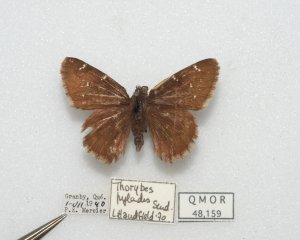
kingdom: Animalia
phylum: Arthropoda
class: Insecta
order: Lepidoptera
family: Hesperiidae
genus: Autochton
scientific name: Autochton
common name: Northern Cloudywing
